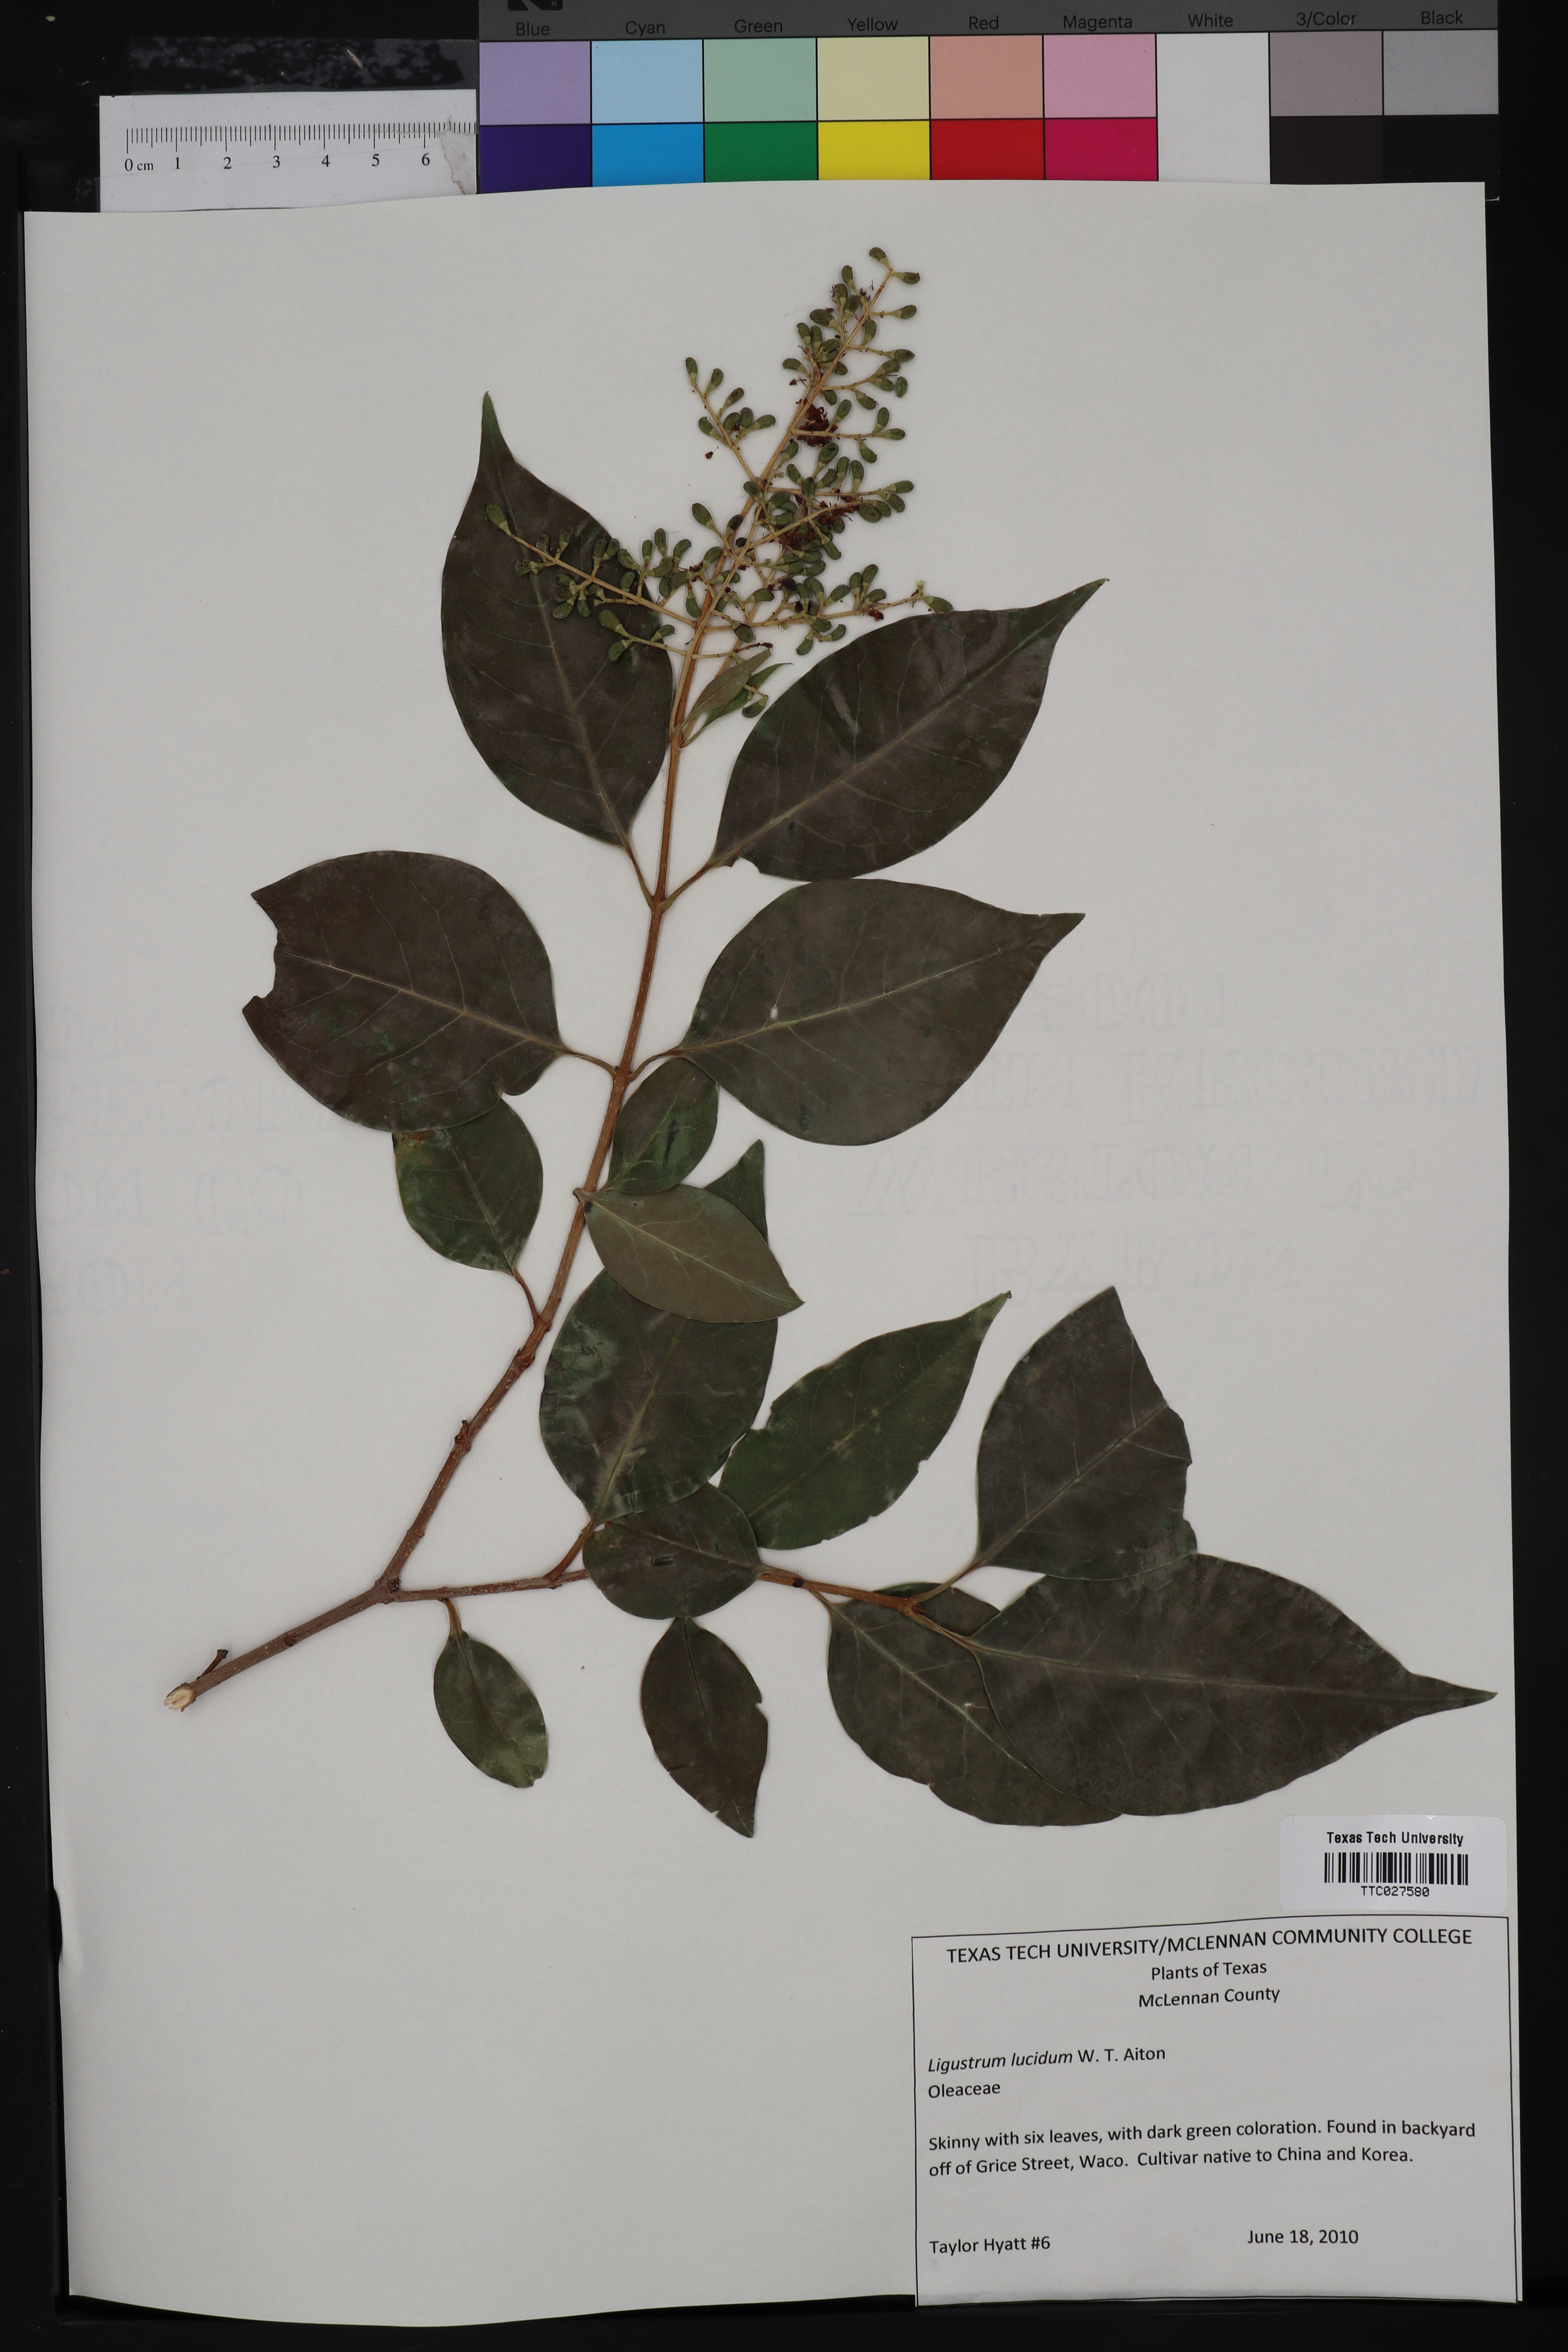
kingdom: Plantae
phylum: Tracheophyta
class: Magnoliopsida
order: Lamiales
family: Oleaceae
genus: Ligustrum
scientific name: Ligustrum lucidum
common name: Glossy privet
